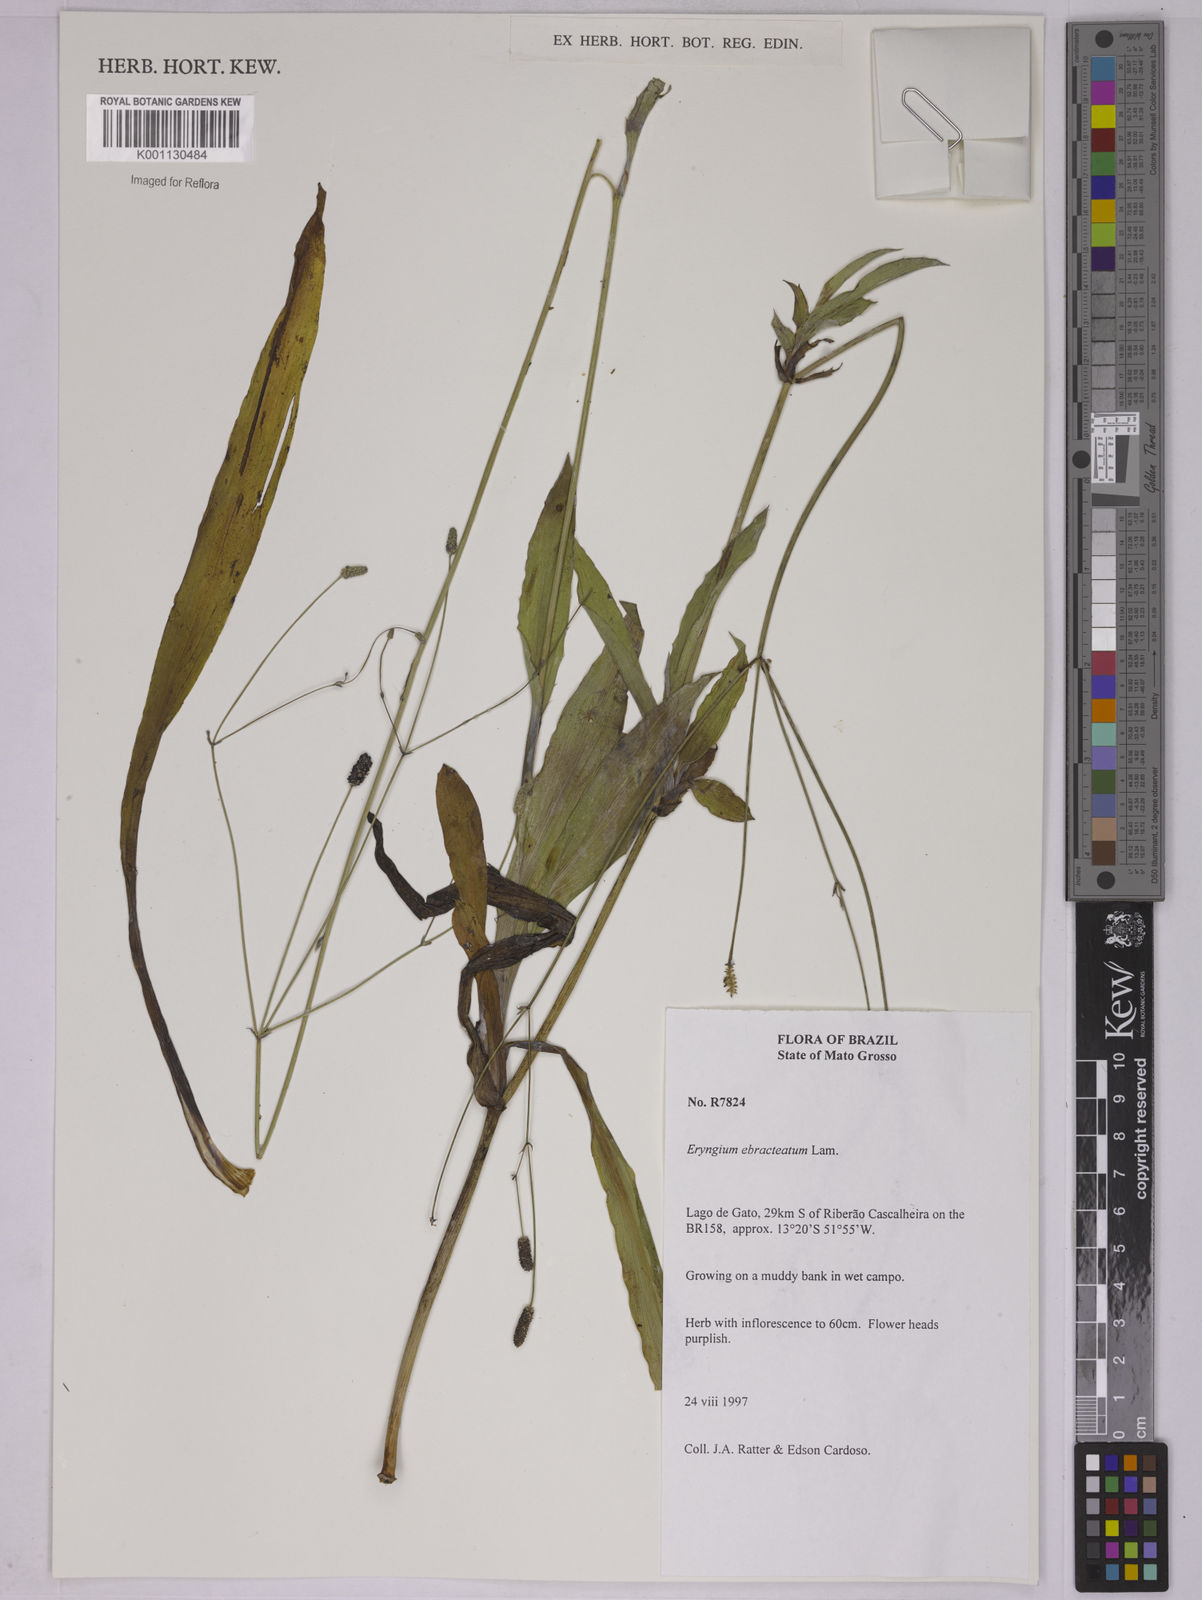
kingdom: Plantae
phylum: Tracheophyta
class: Magnoliopsida
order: Apiales
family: Apiaceae
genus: Eryngium
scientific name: Eryngium ebracteatum
